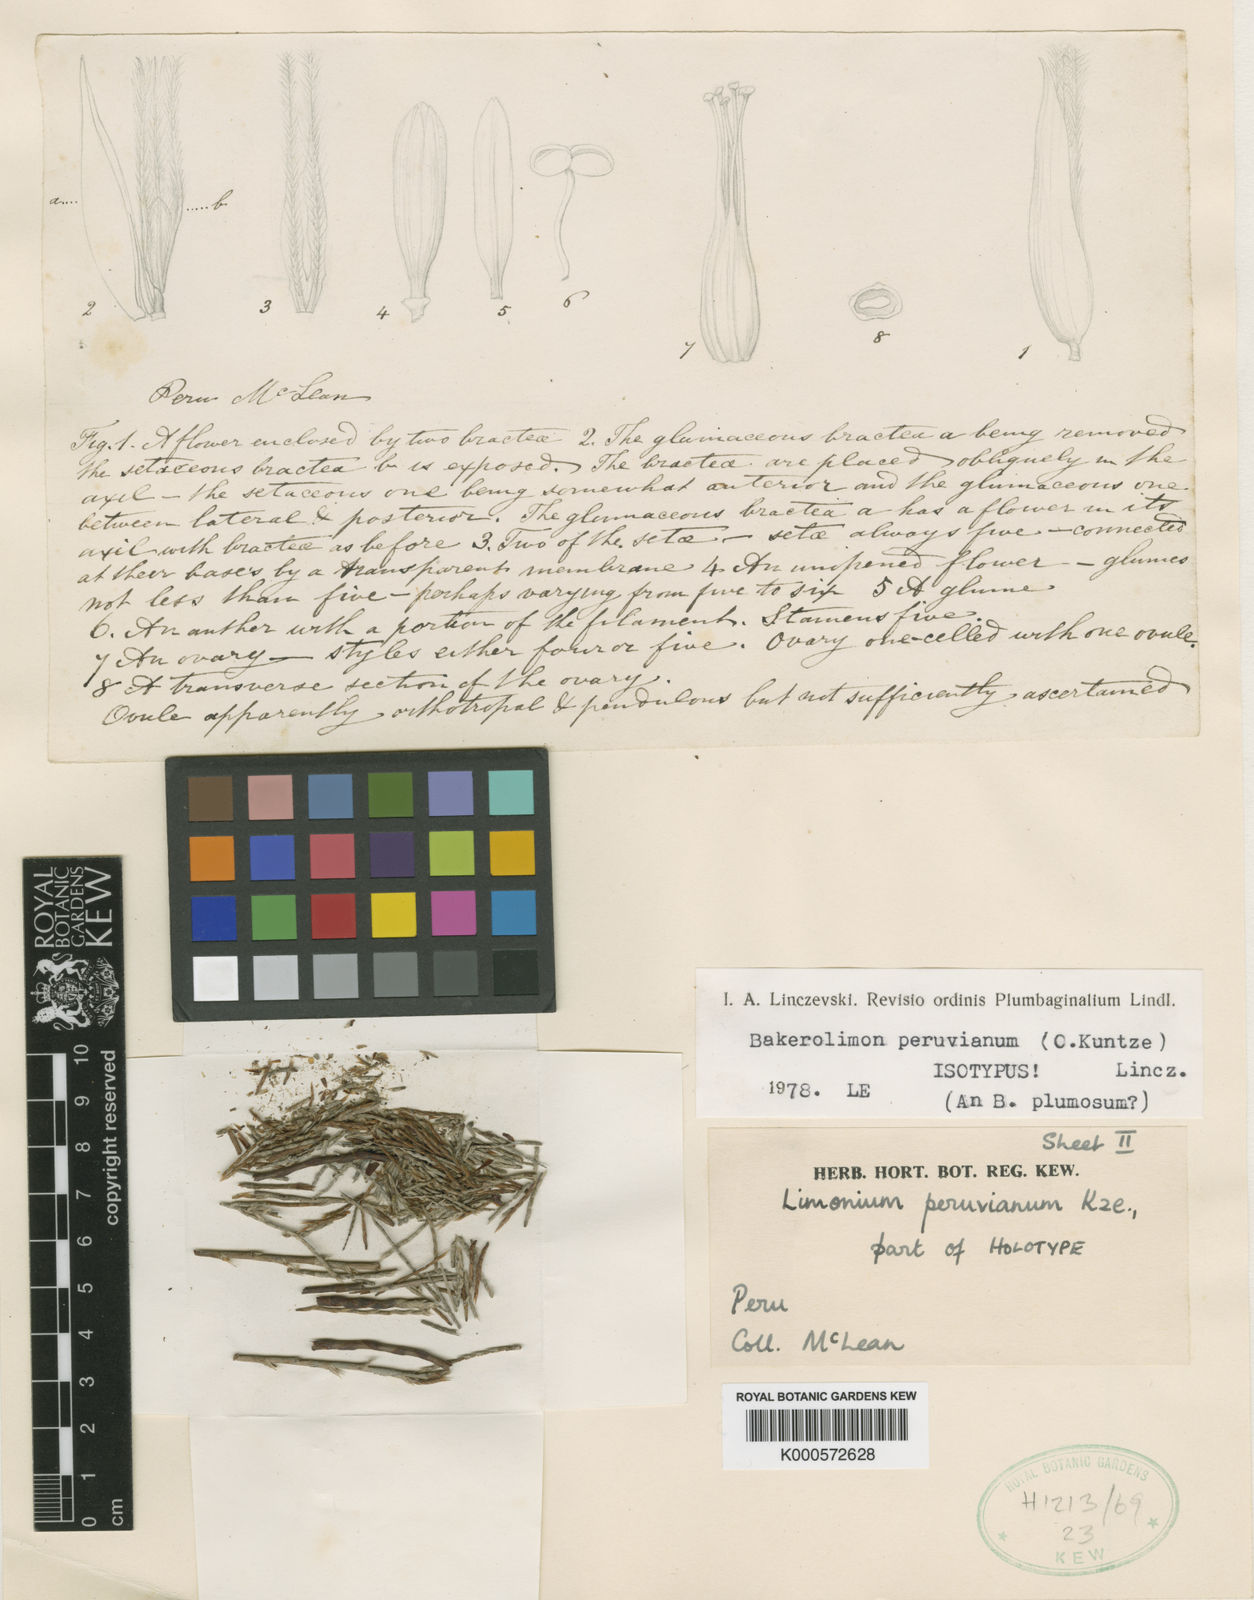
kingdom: Plantae
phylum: Tracheophyta
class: Magnoliopsida
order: Caryophyllales
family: Plumbaginaceae
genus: Bakerolimon
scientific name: Bakerolimon peruvianum
